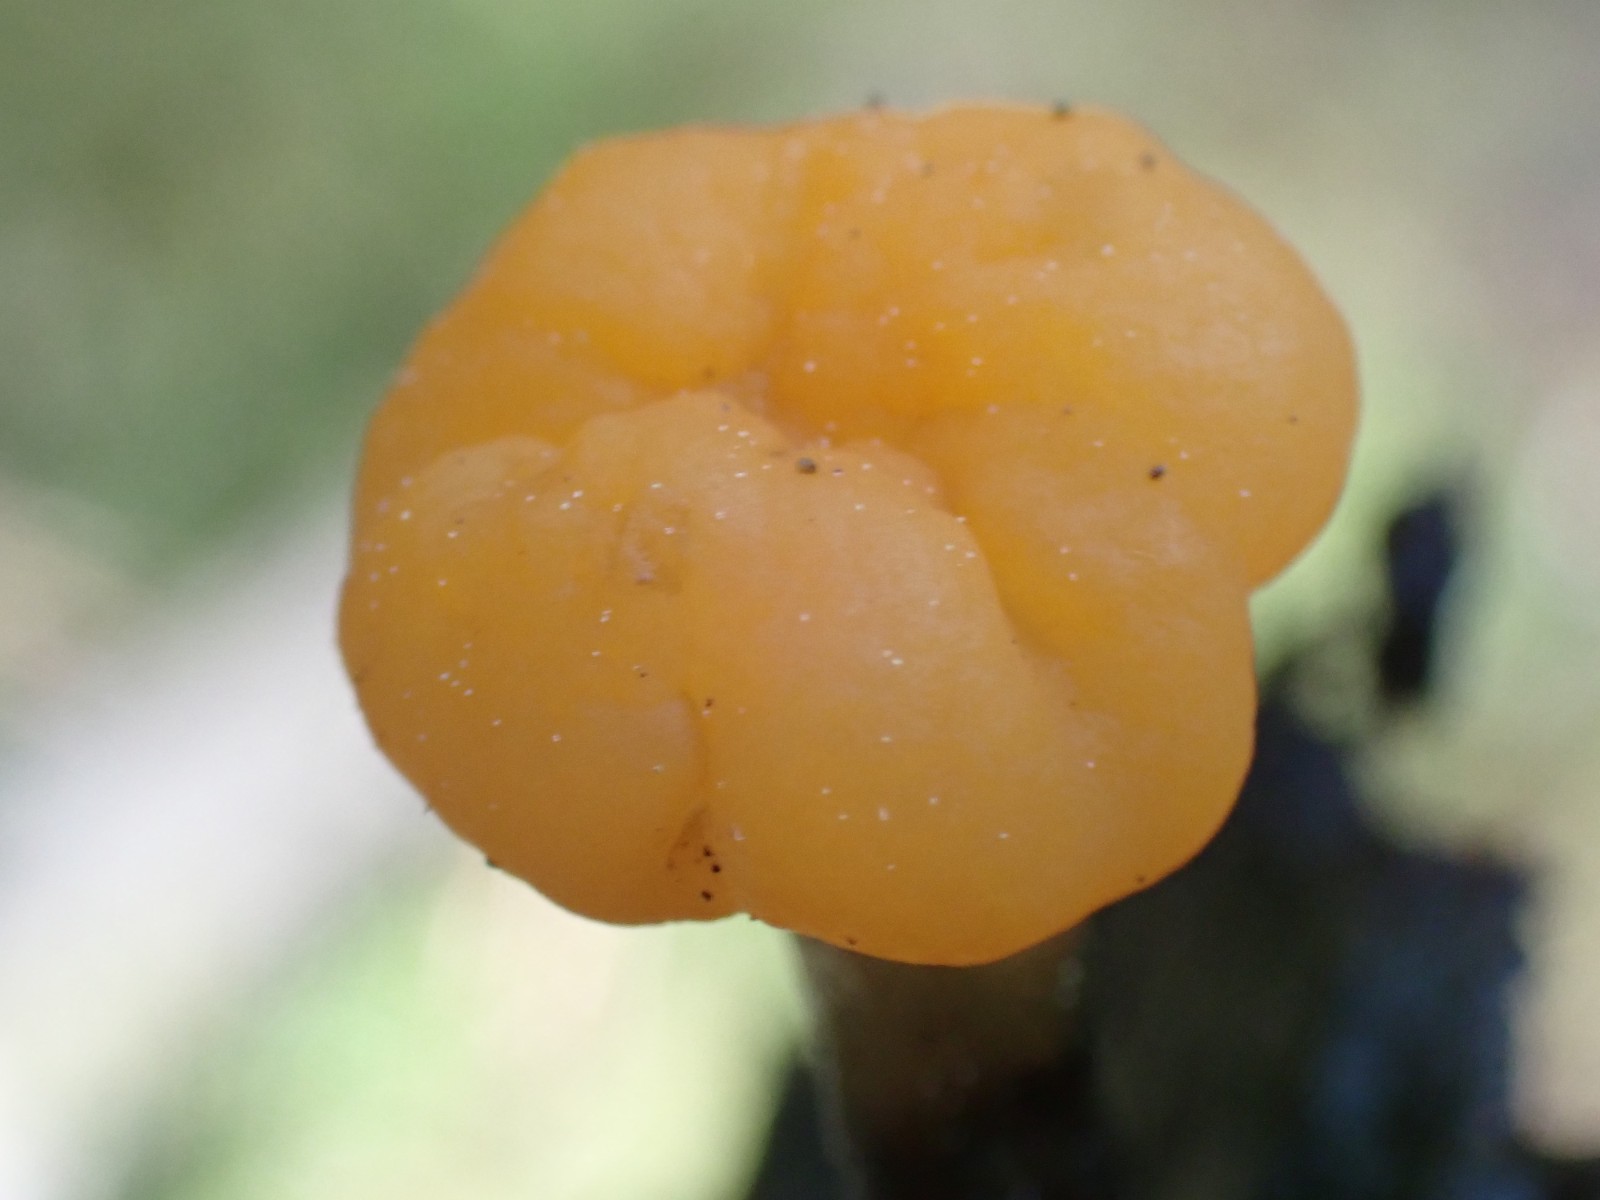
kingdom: Fungi
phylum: Ascomycota
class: Leotiomycetes
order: Helotiales
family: Cenangiaceae
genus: Mitrula
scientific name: Mitrula paludosa
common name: gul nøkketunge
